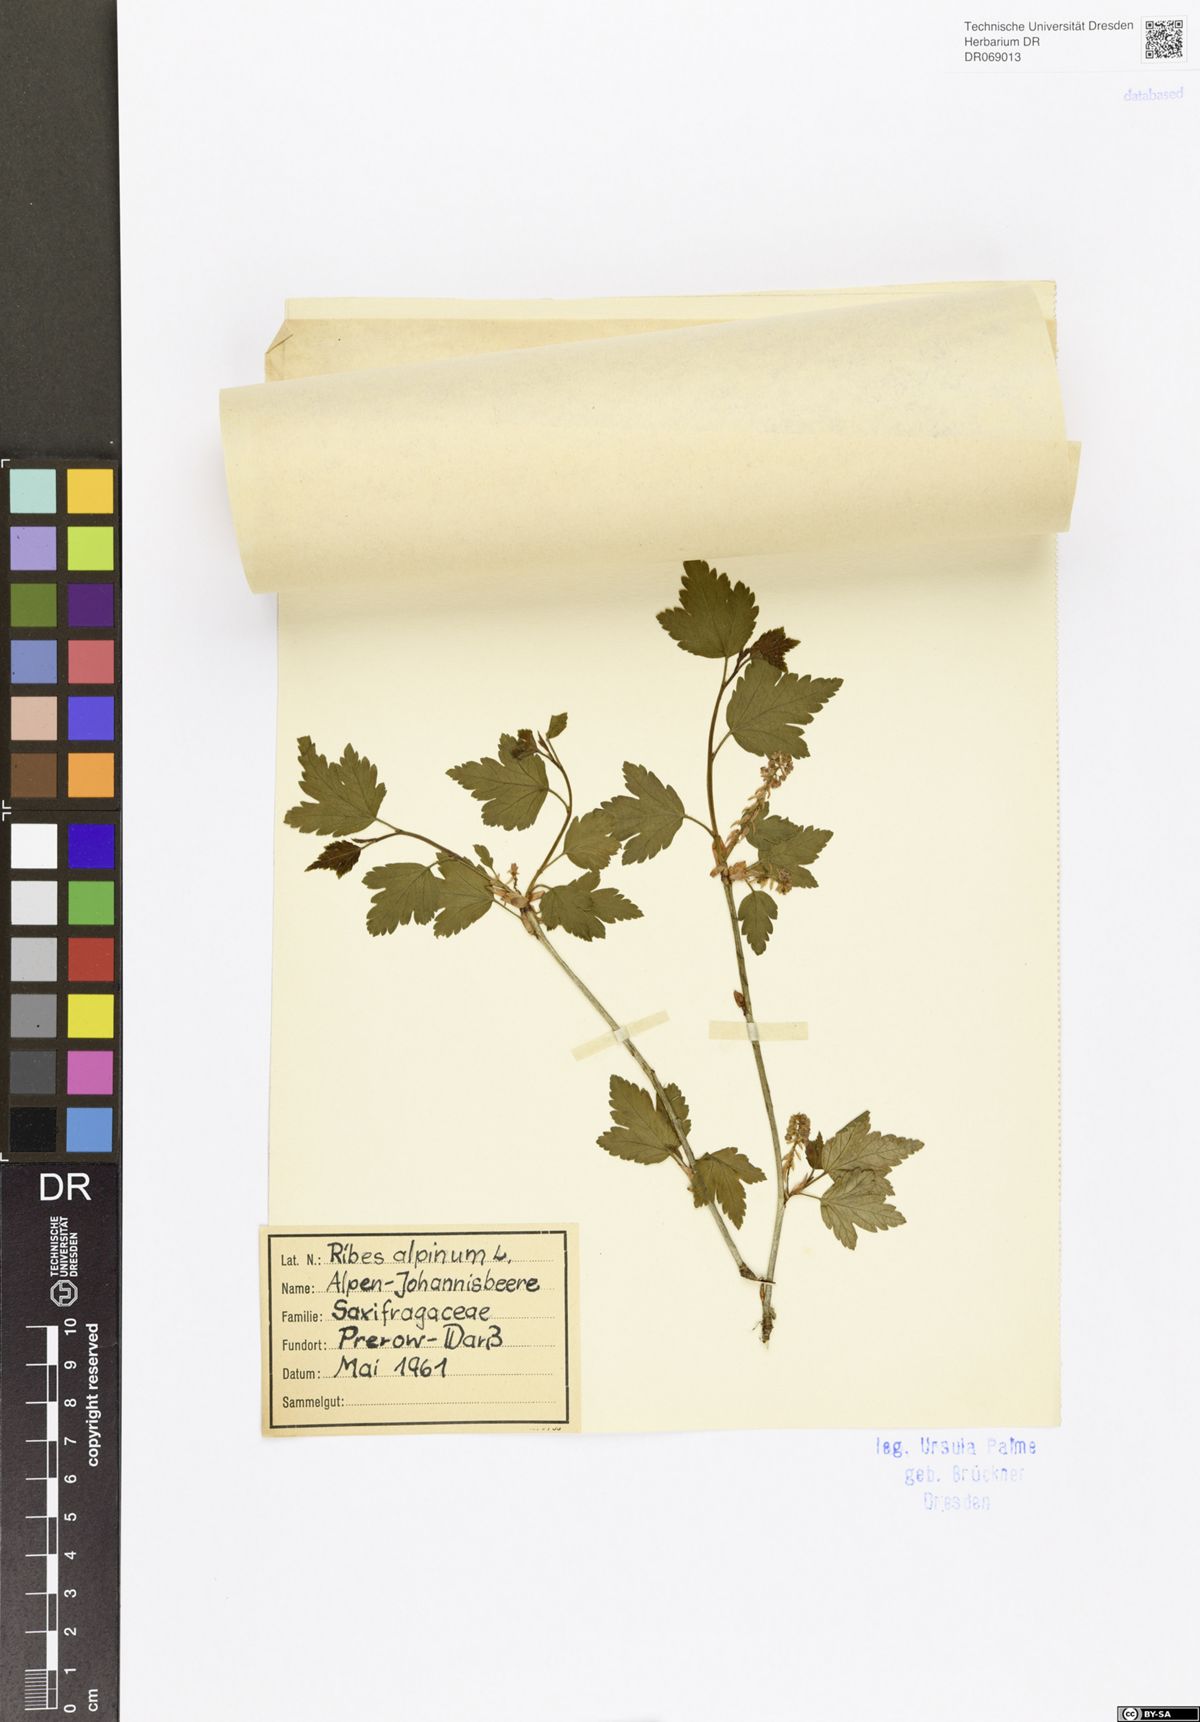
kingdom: Plantae
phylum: Tracheophyta
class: Magnoliopsida
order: Saxifragales
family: Grossulariaceae
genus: Ribes
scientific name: Ribes alpinum
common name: Alpine currant
